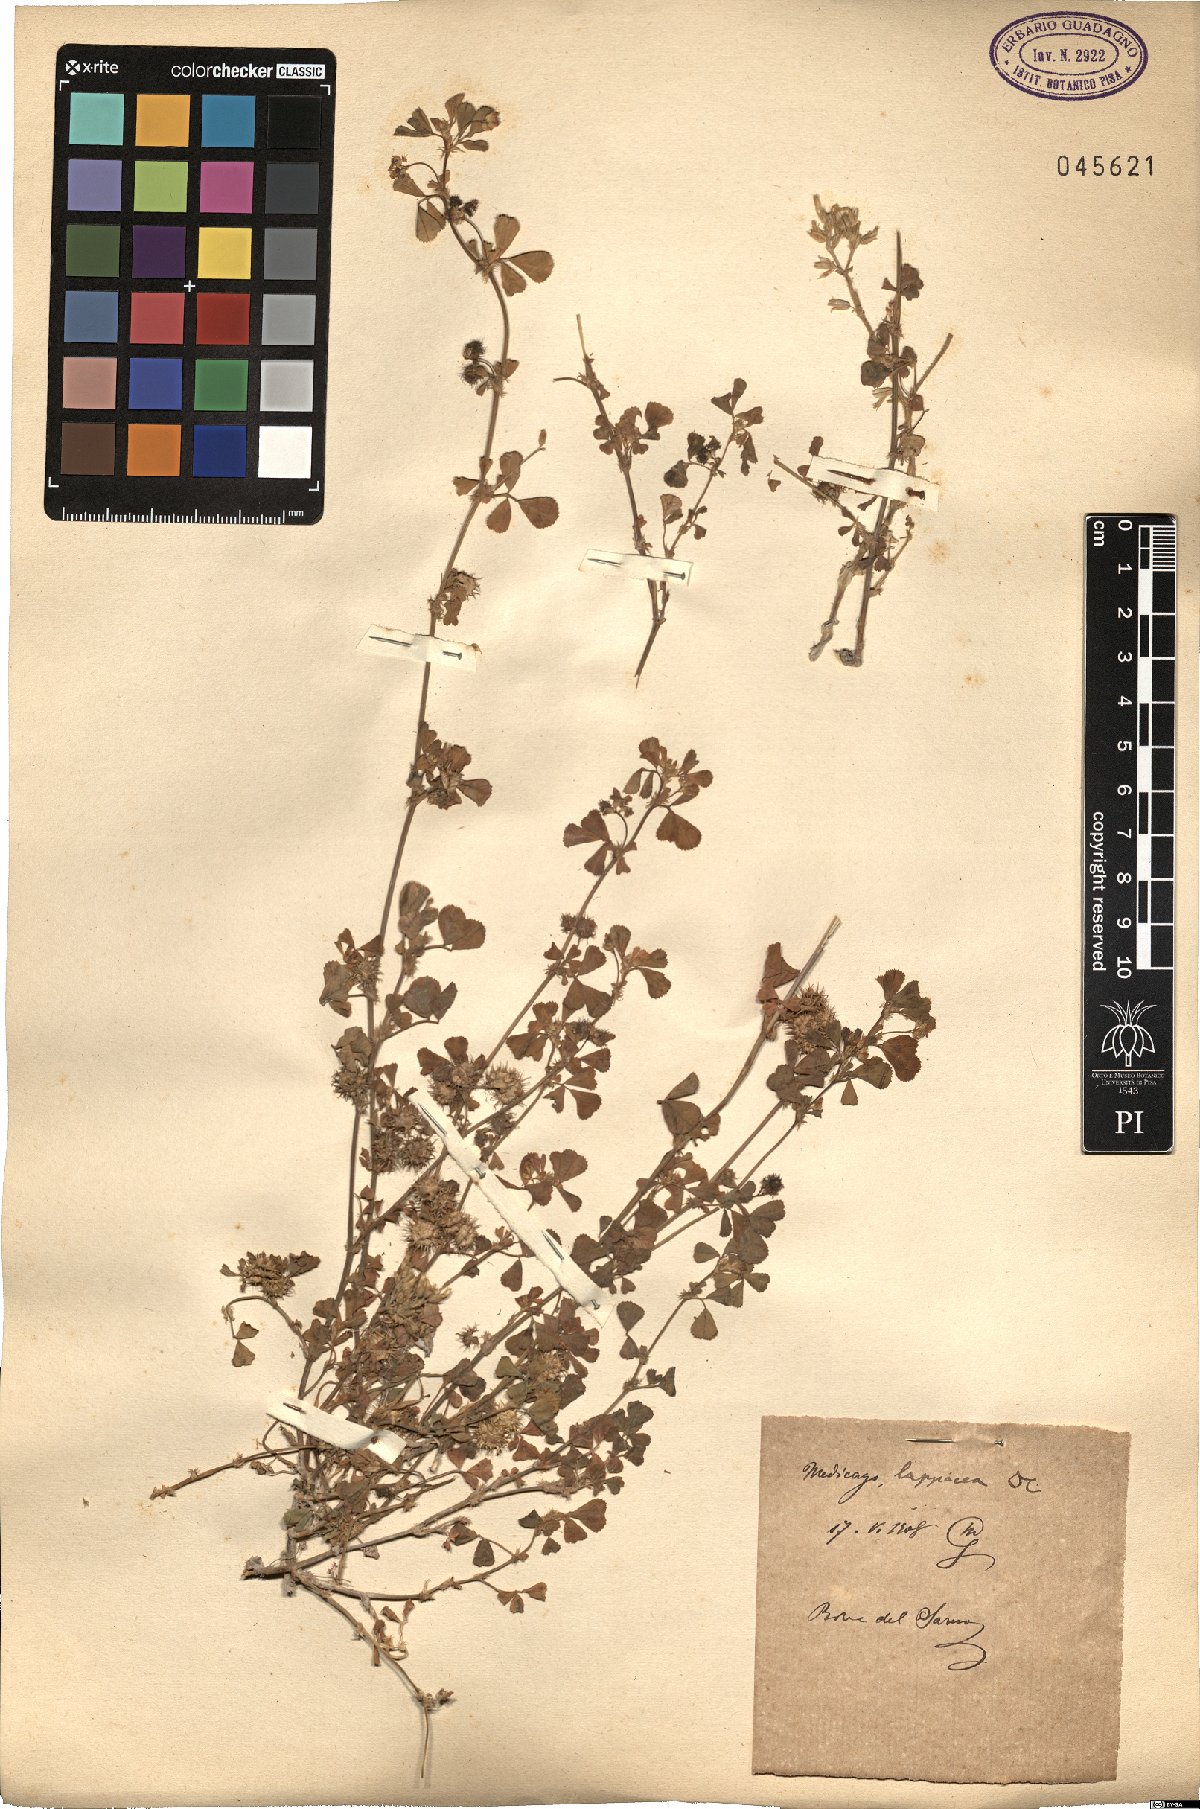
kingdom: Plantae
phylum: Tracheophyta
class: Magnoliopsida
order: Fabales
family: Fabaceae
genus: Medicago
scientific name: Medicago polymorpha
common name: Burclover
